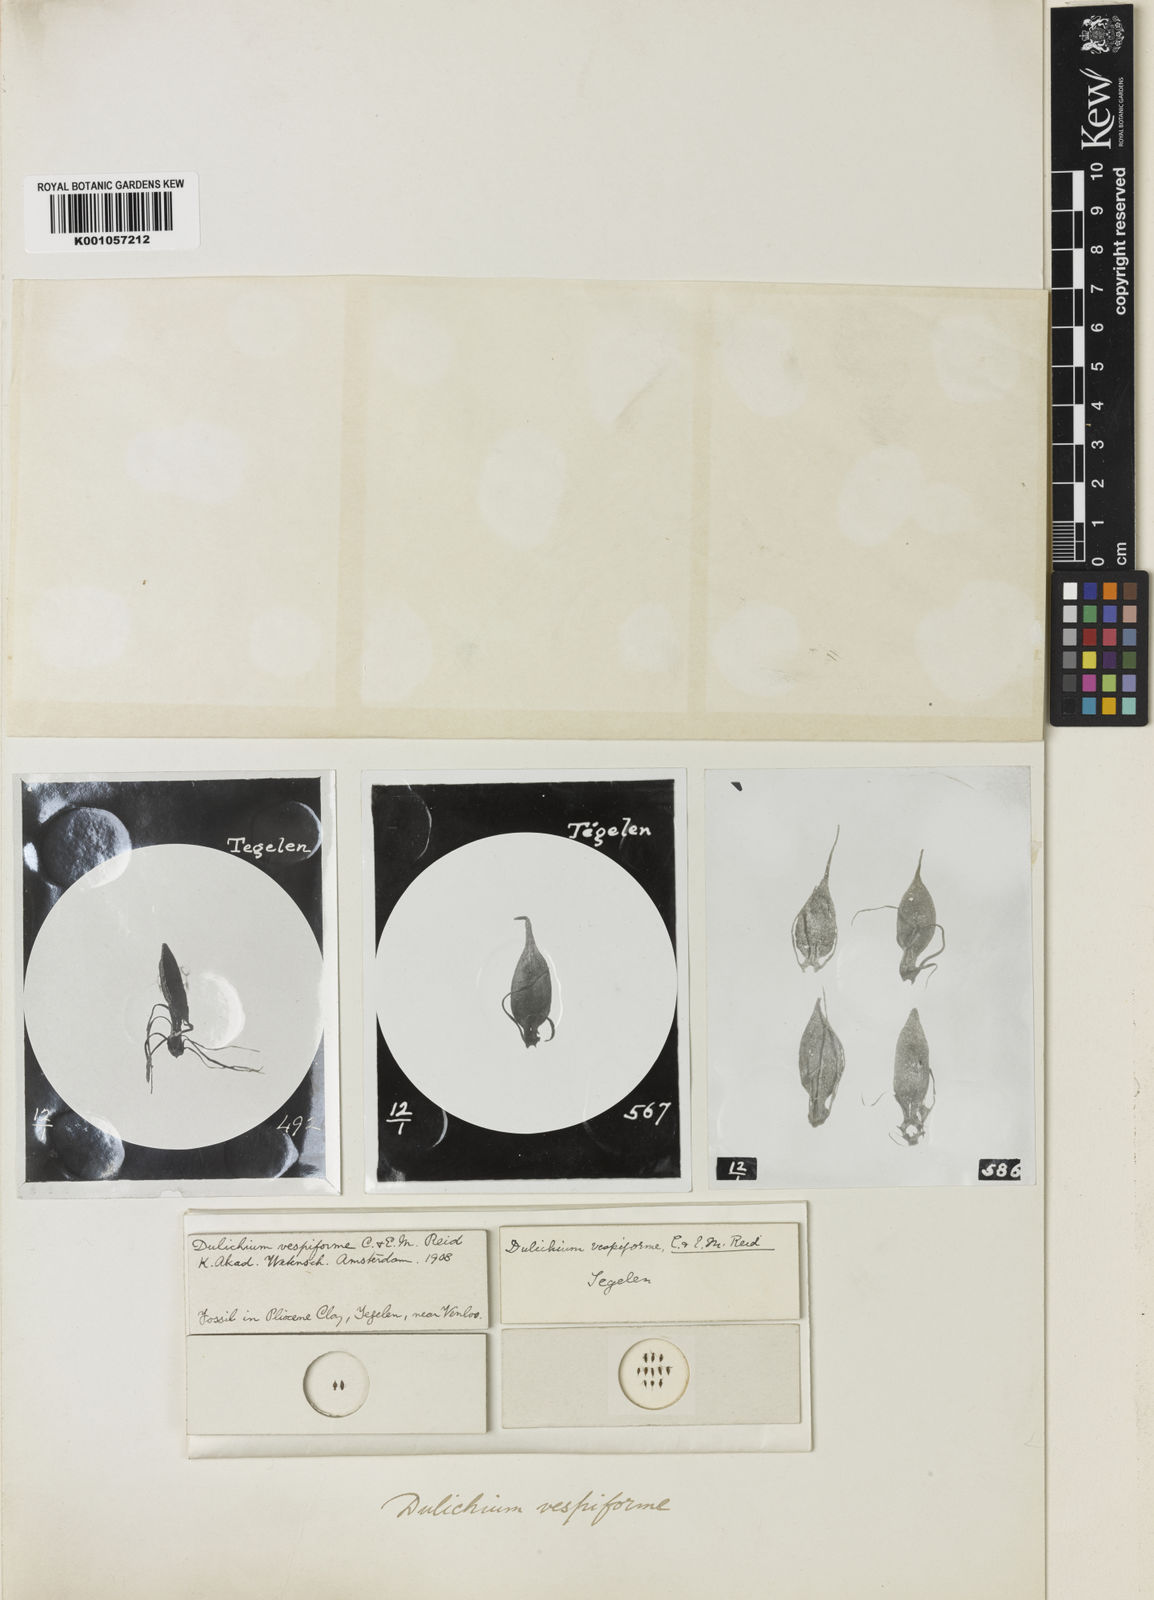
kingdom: Plantae
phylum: Tracheophyta
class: Liliopsida
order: Poales
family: Cyperaceae
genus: Dulichium
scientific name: Dulichium arundinaceum
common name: Three-way sedge
